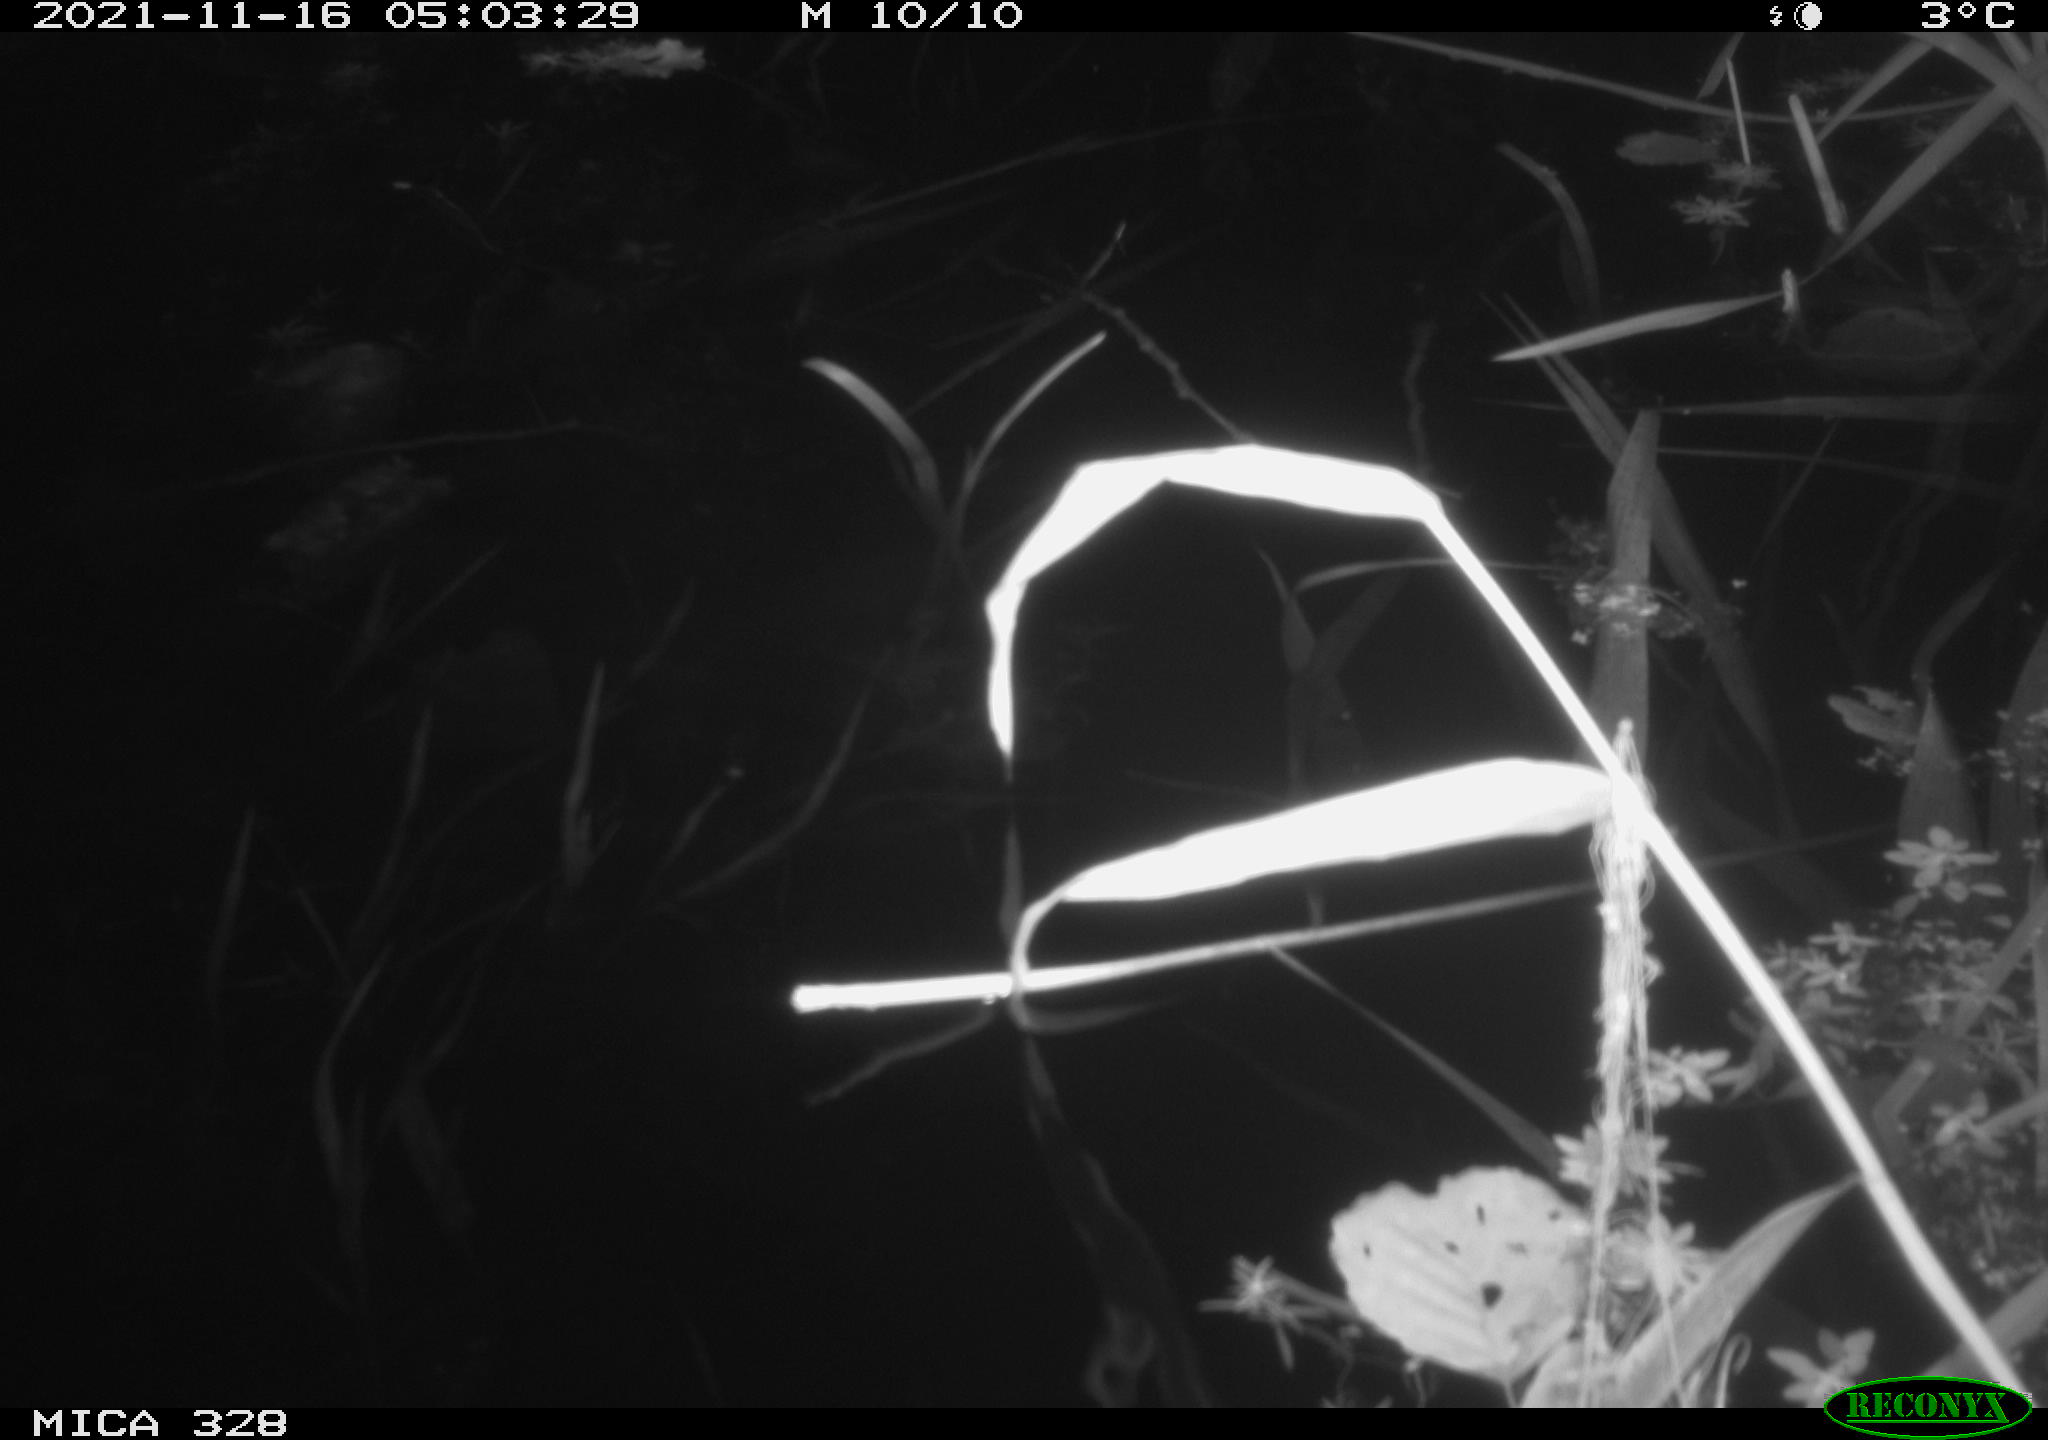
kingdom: Animalia
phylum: Chordata
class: Mammalia
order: Rodentia
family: Cricetidae
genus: Ondatra
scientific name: Ondatra zibethicus
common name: Muskrat
